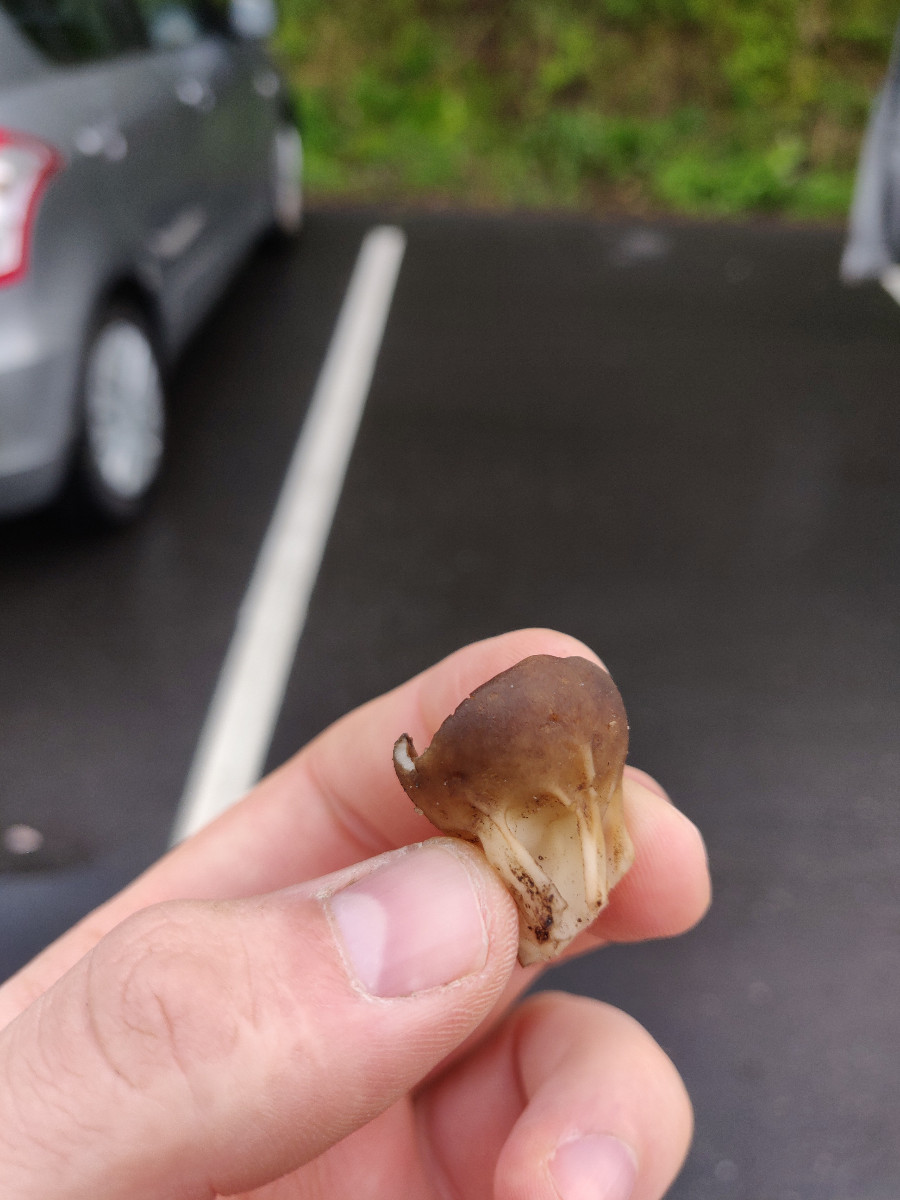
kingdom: Fungi
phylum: Ascomycota
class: Pezizomycetes
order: Pezizales
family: Helvellaceae
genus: Helvella
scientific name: Helvella acetabulum
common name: pokal-foldhat
